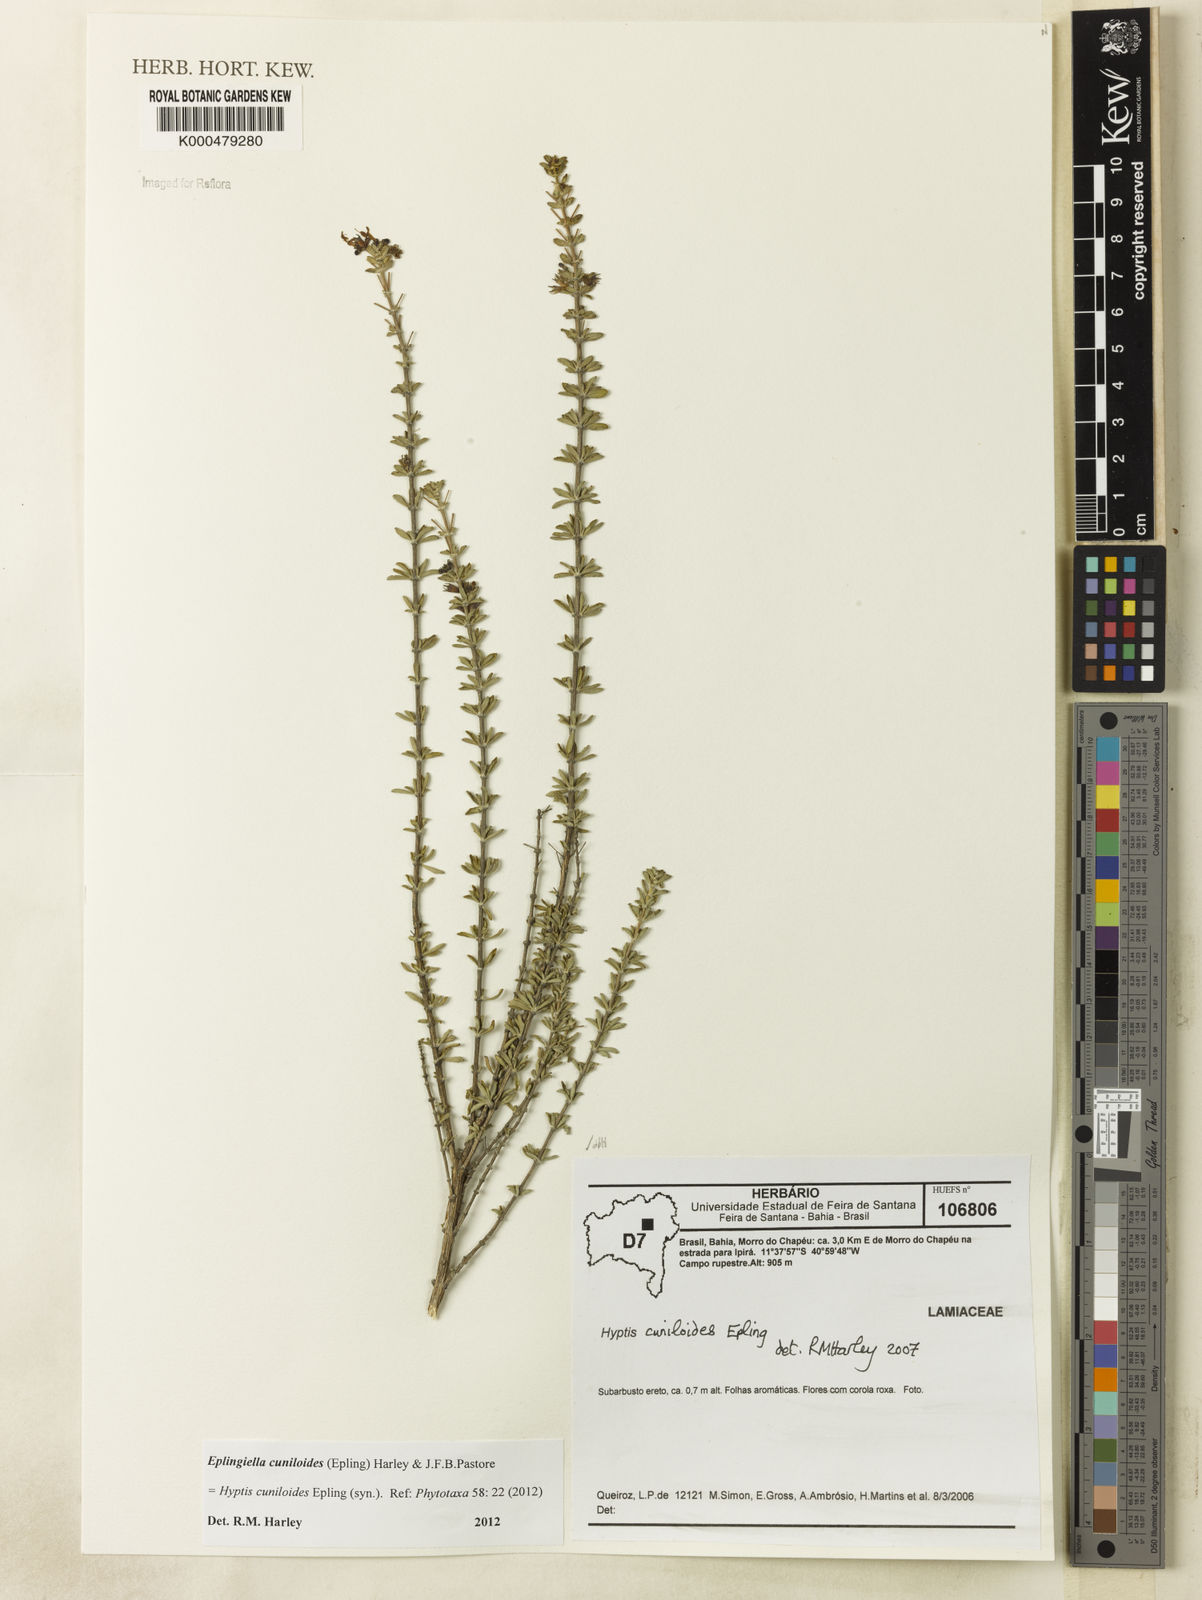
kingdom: Plantae
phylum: Tracheophyta
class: Magnoliopsida
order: Lamiales
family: Lamiaceae
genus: Eplingiella
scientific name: Eplingiella cuniloides
